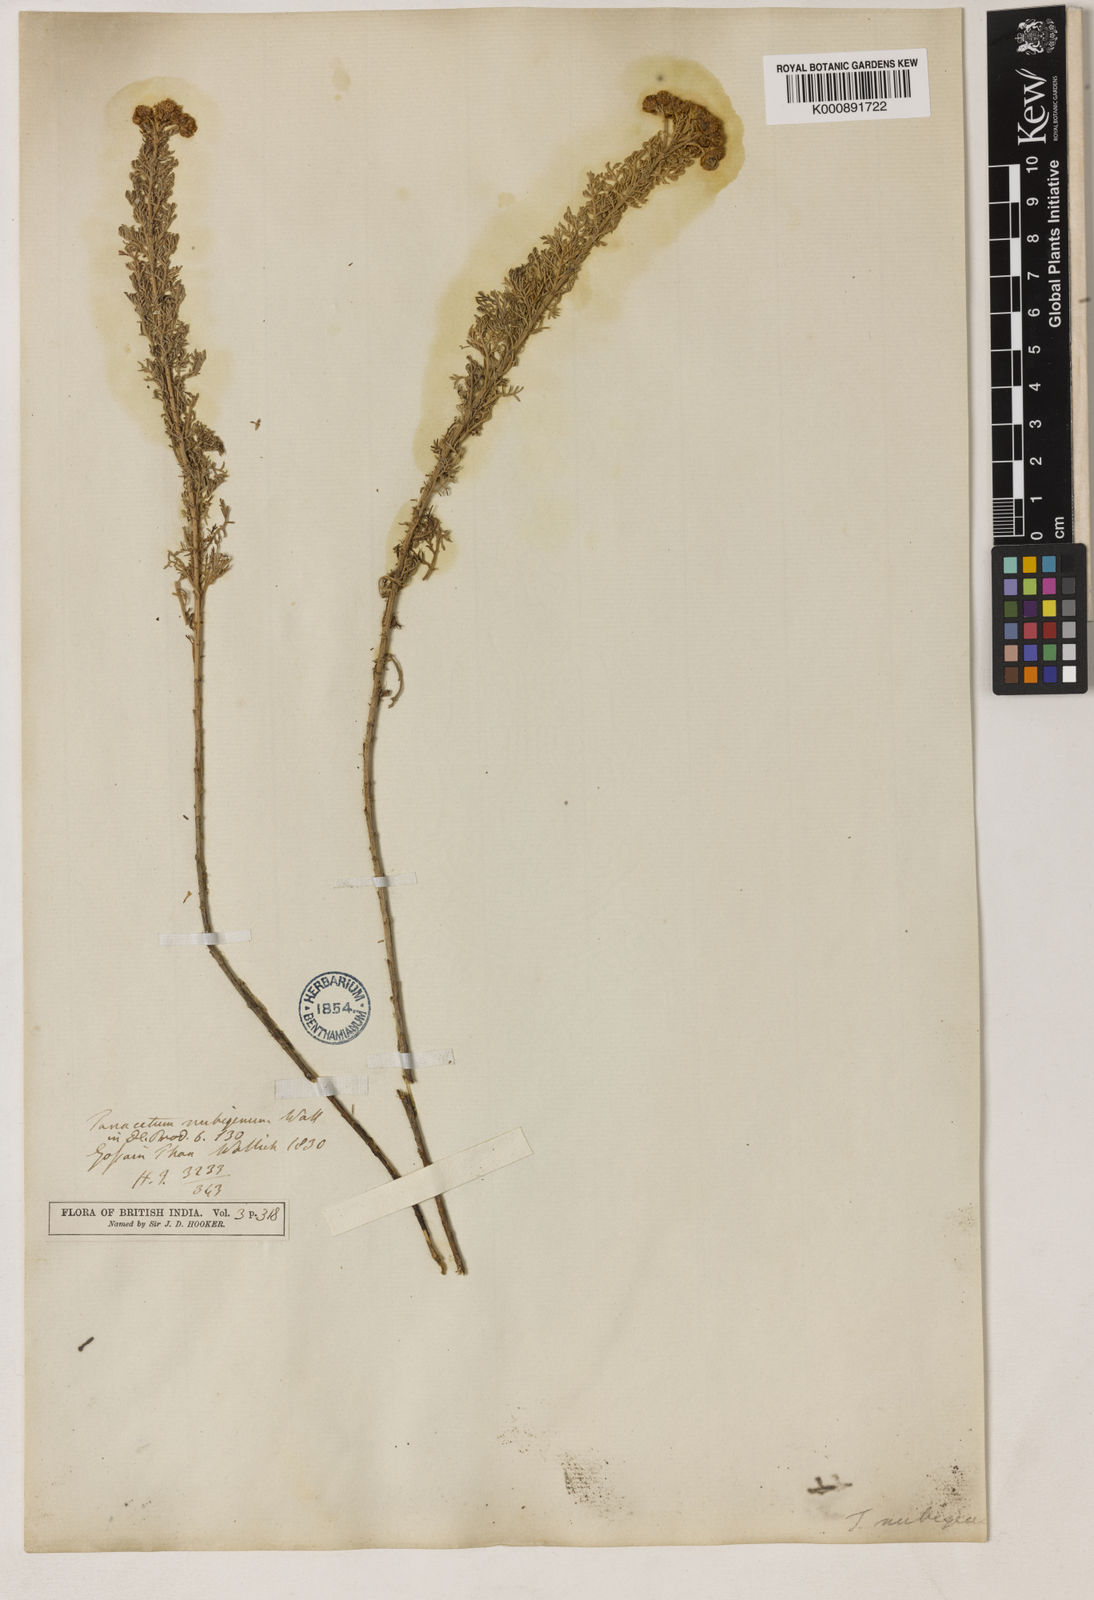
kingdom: Plantae
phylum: Tracheophyta
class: Magnoliopsida
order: Asterales
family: Asteraceae
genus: Ajania
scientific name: Ajania nubigena
